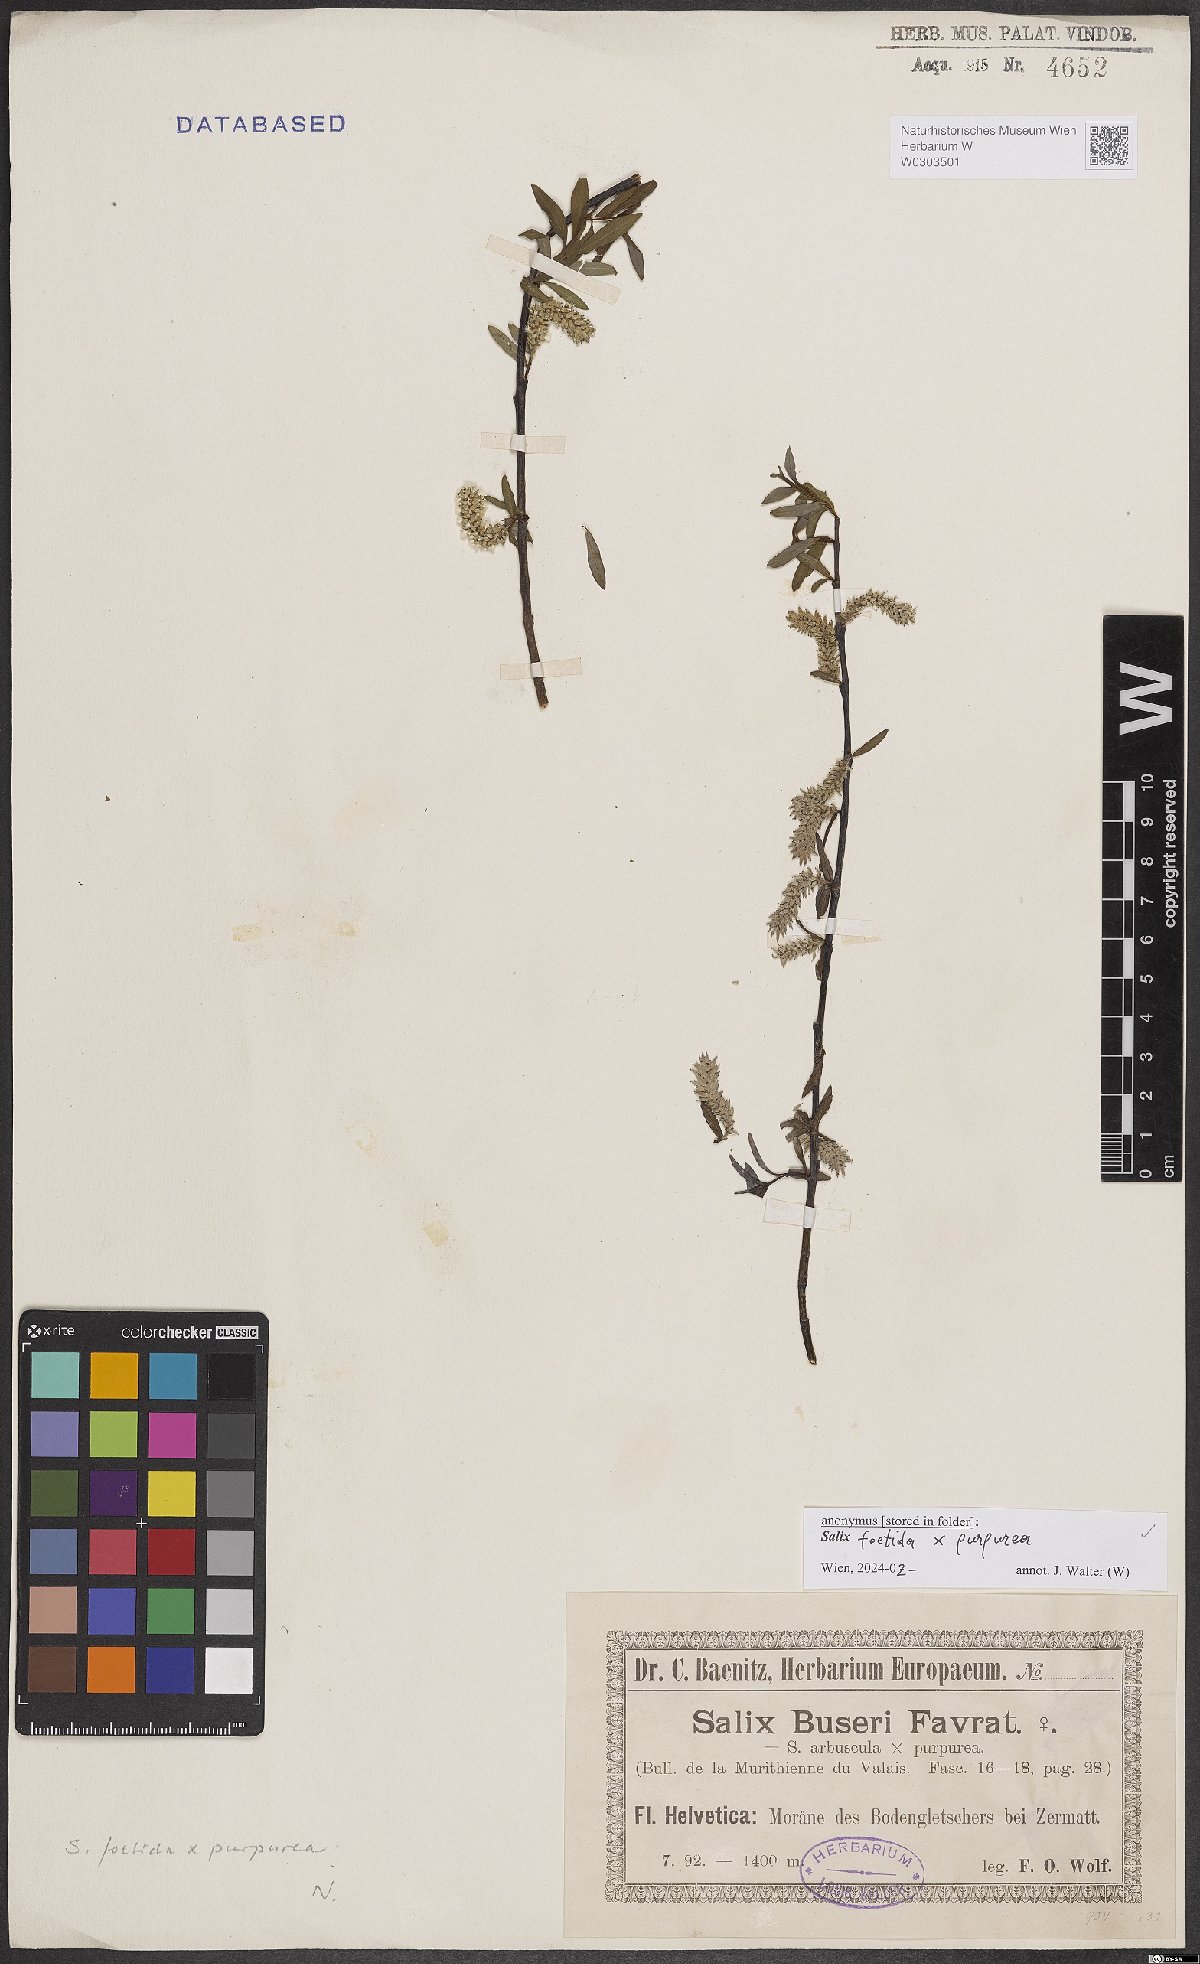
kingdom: Plantae
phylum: Tracheophyta
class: Magnoliopsida
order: Malpighiales
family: Salicaceae
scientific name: Salicaceae
